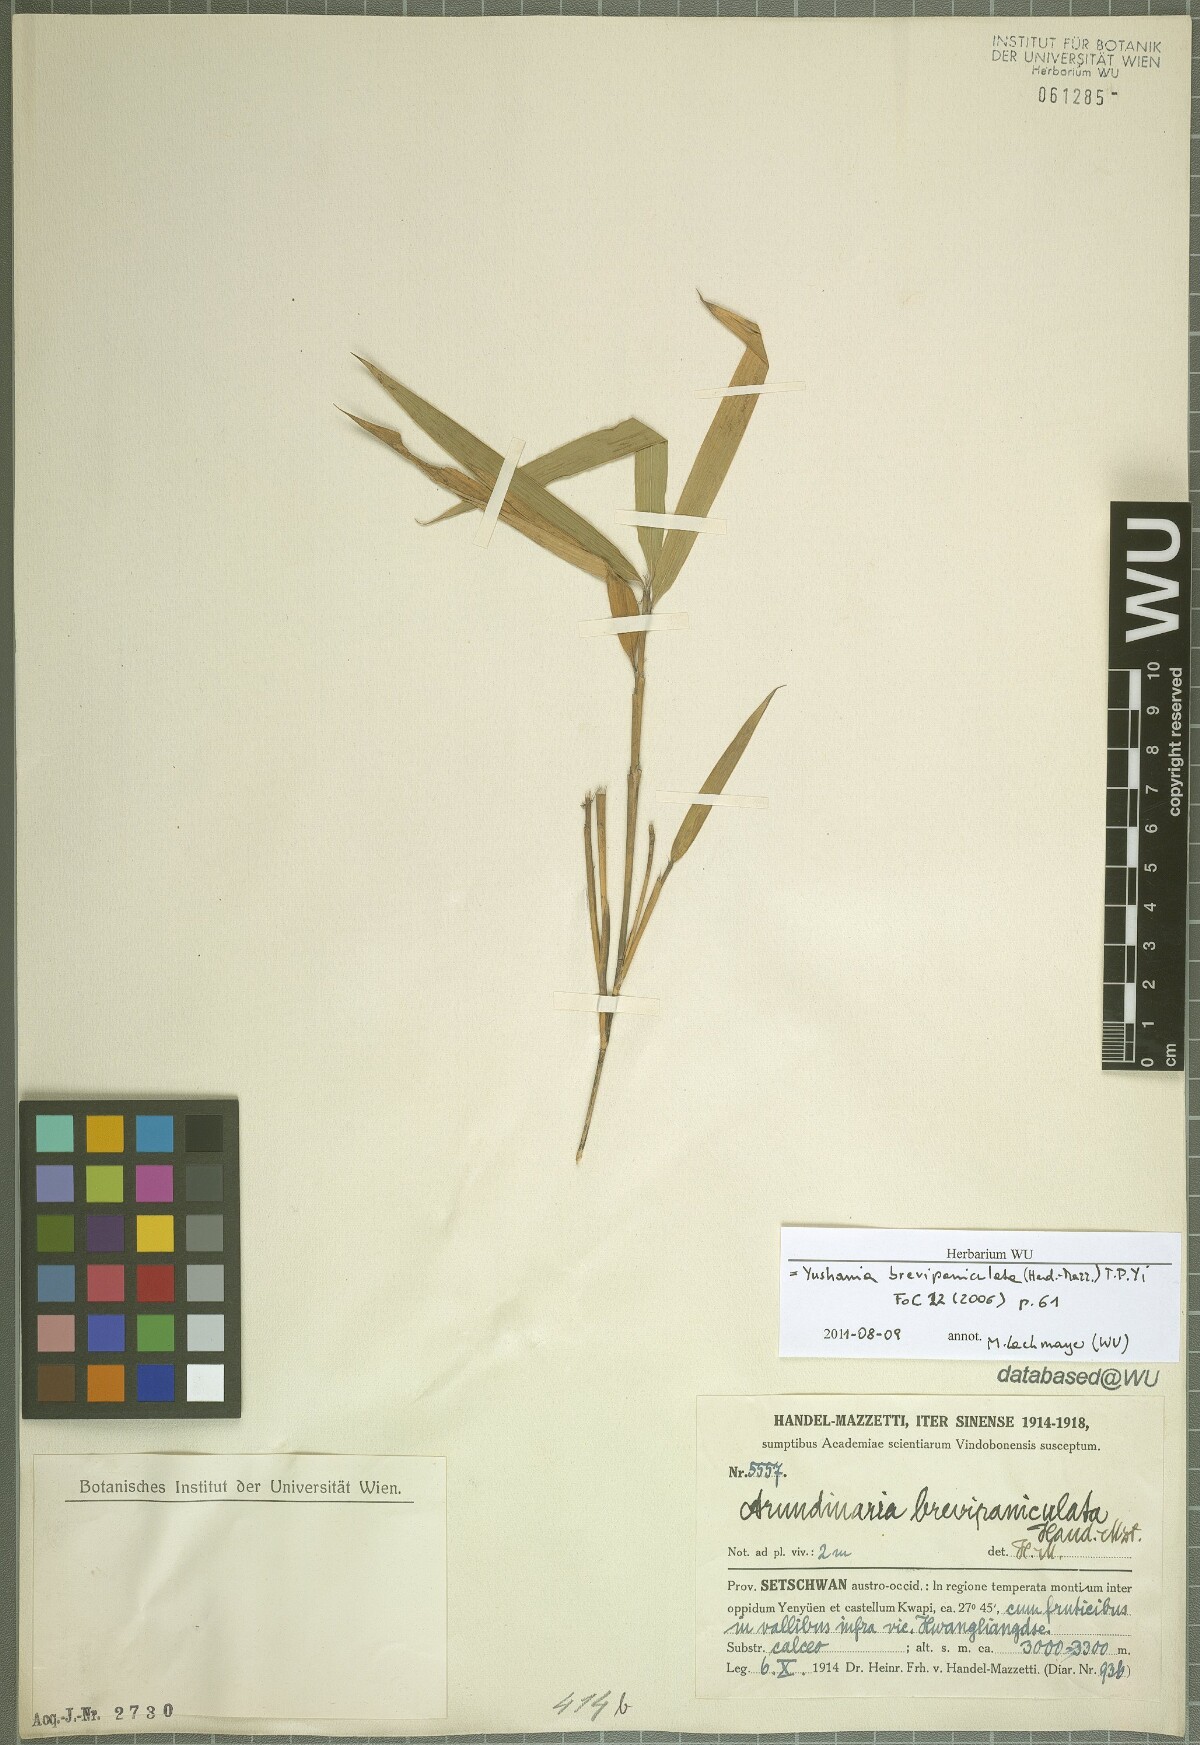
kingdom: Plantae
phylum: Tracheophyta
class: Liliopsida
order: Poales
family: Poaceae
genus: Yushania
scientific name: Yushania brevipaniculata
